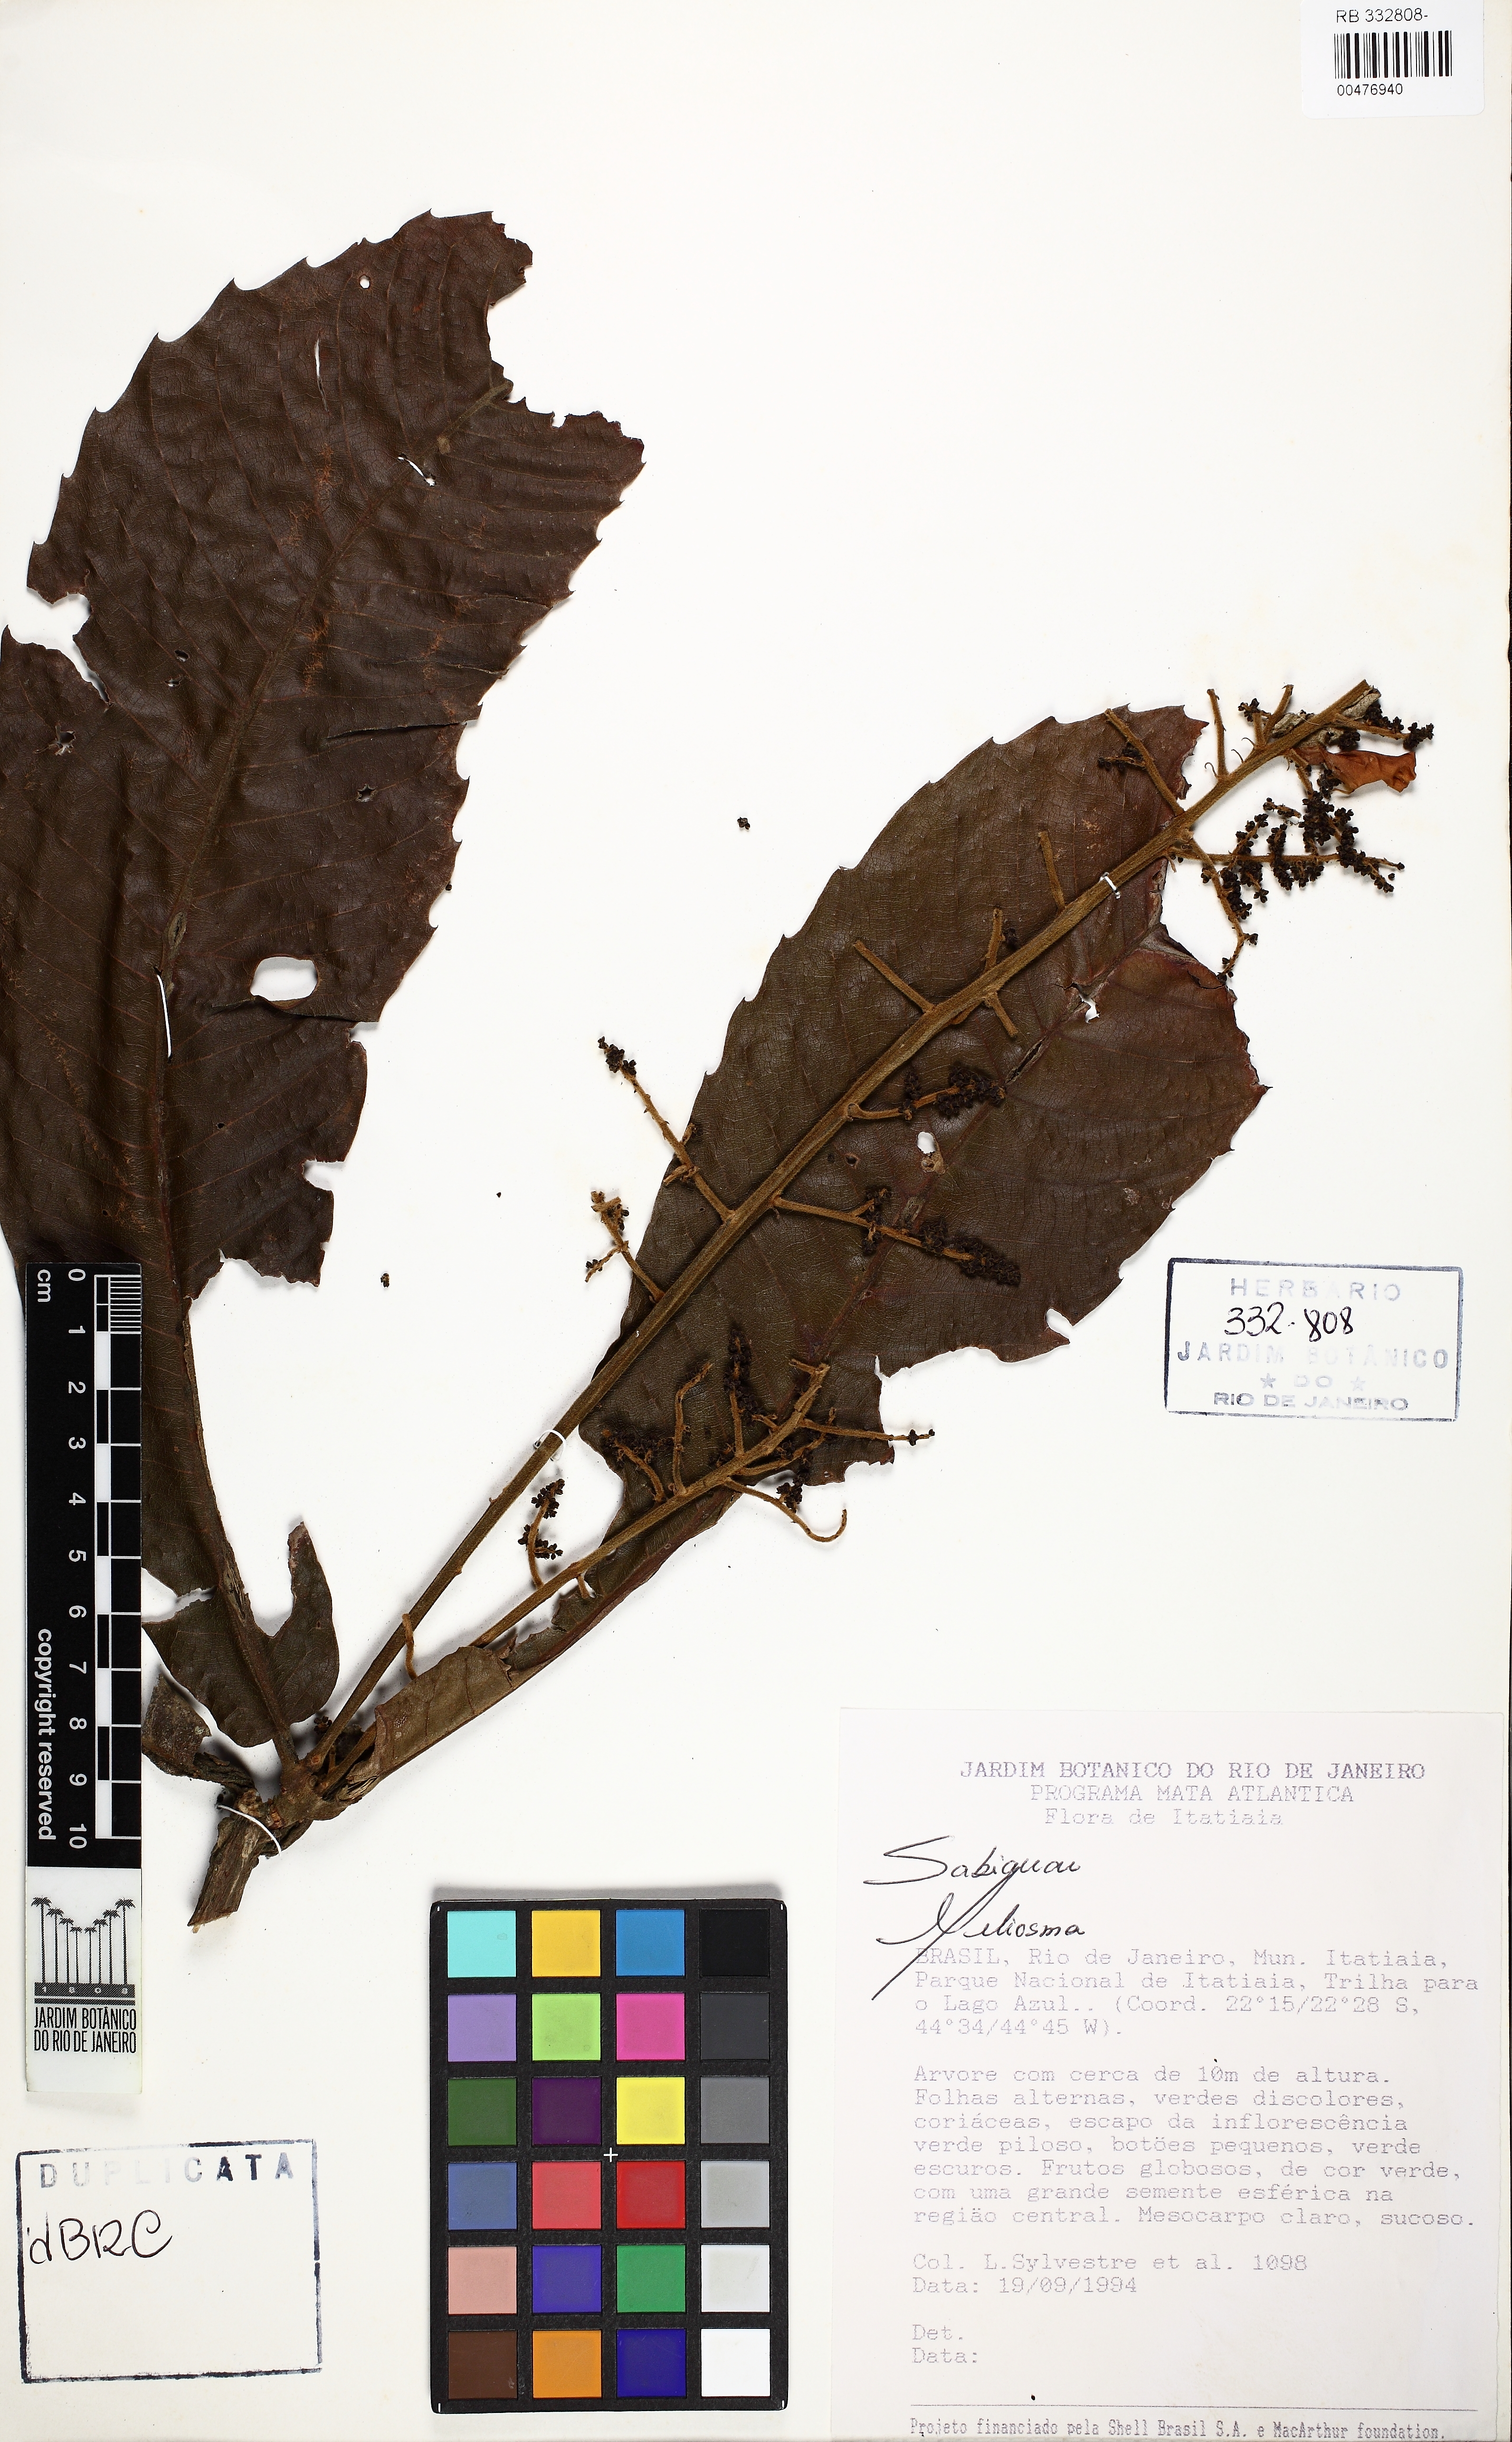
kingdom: Plantae
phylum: Tracheophyta
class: Magnoliopsida
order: Proteales
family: Sabiaceae
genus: Meliosma
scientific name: Meliosma
